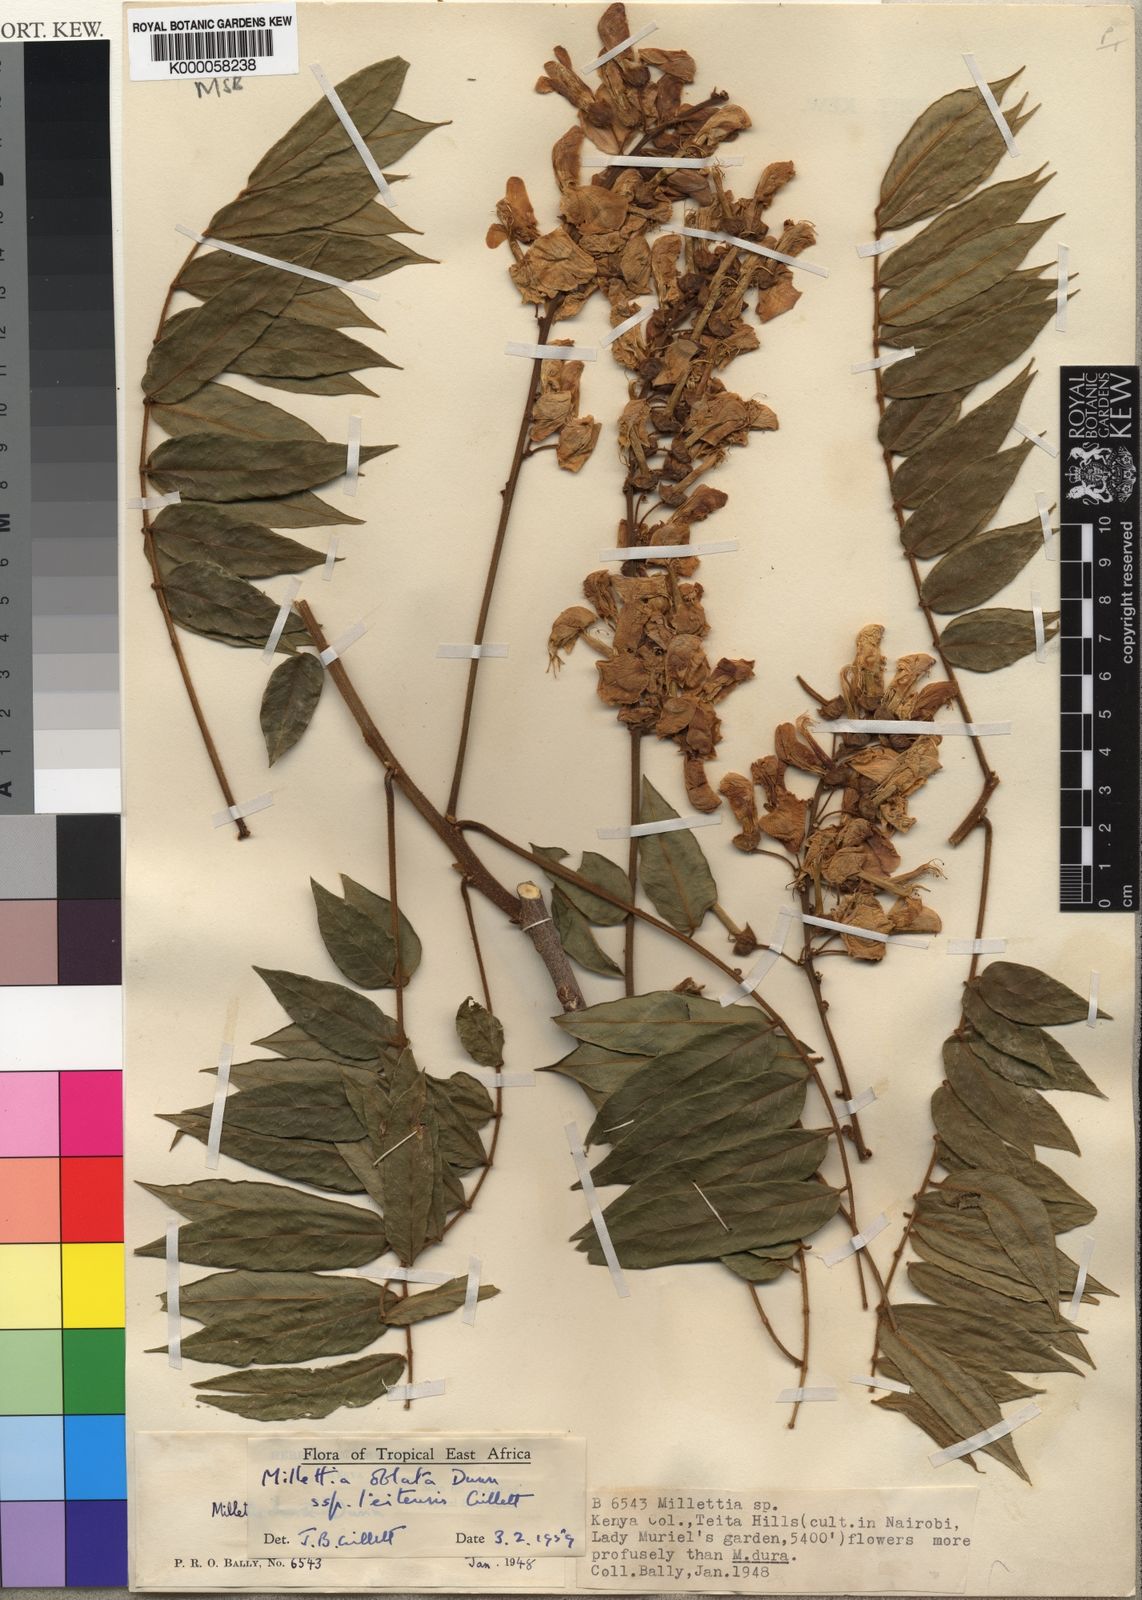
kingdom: Plantae
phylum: Tracheophyta
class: Magnoliopsida
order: Fabales
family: Fabaceae
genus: Millettia
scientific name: Millettia oblata
